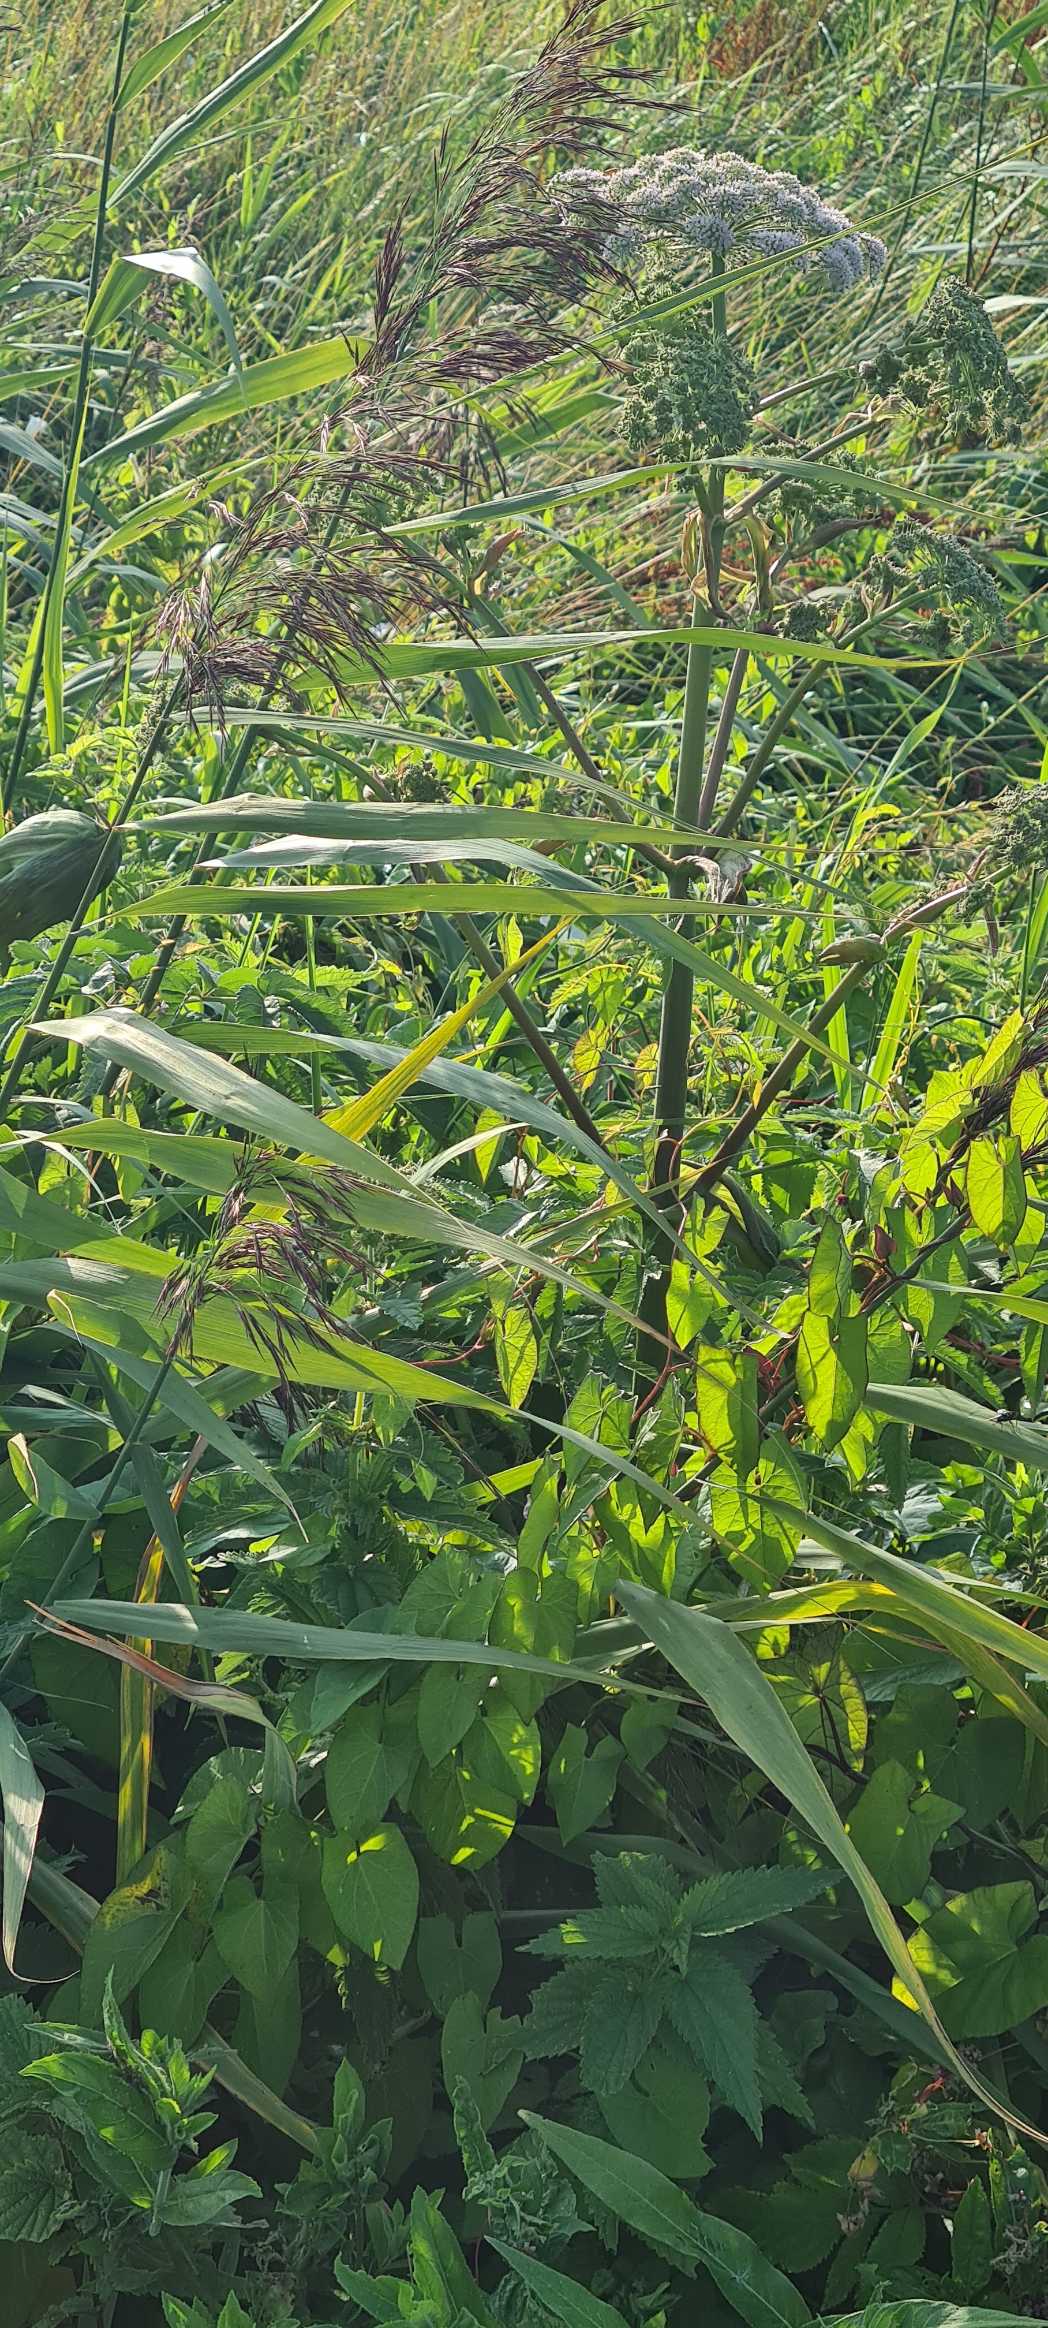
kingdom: Plantae
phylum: Tracheophyta
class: Magnoliopsida
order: Apiales
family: Apiaceae
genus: Angelica
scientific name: Angelica sylvestris
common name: Angelik
